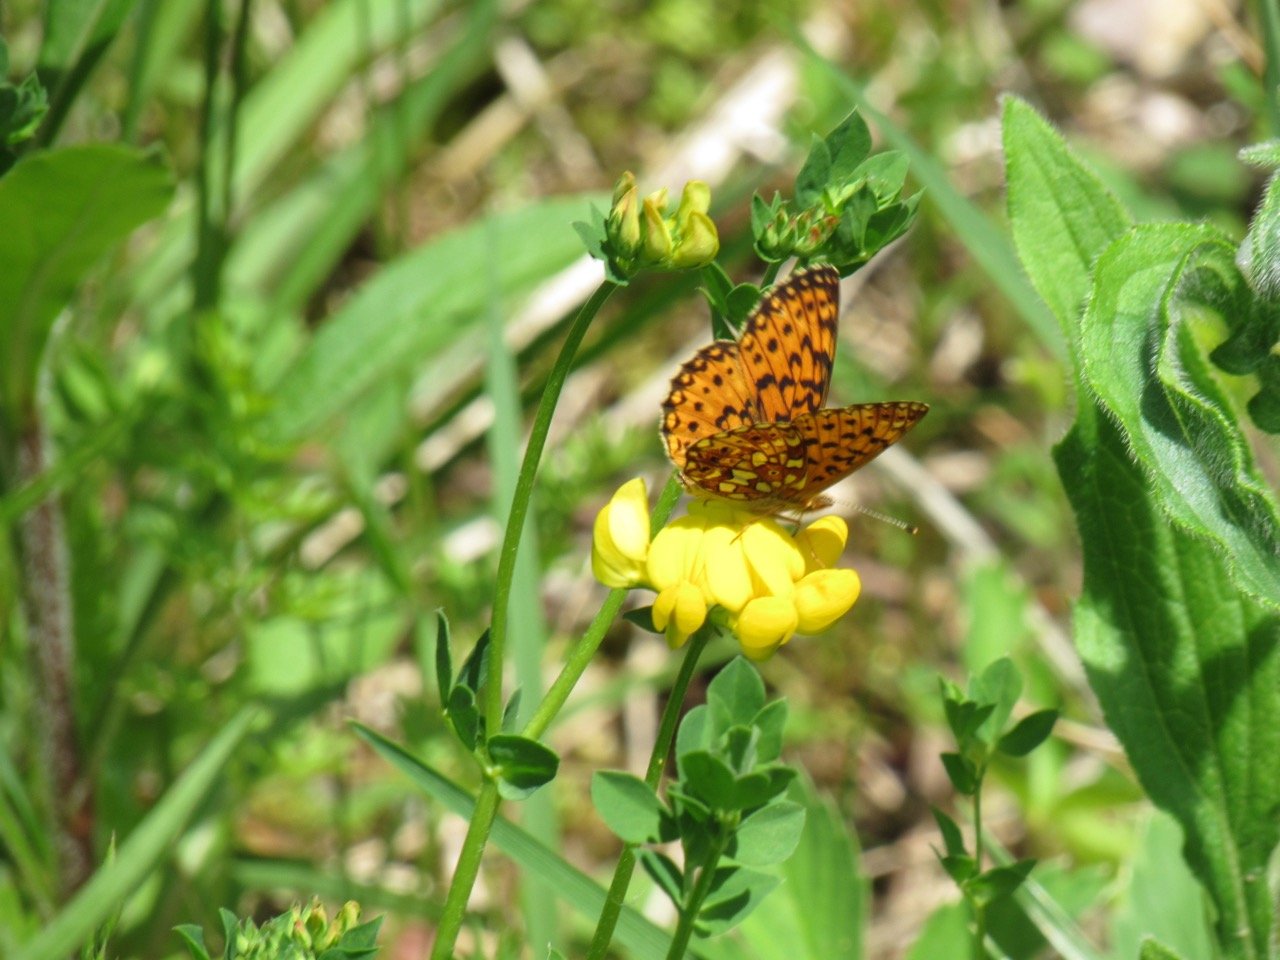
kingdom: Animalia
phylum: Arthropoda
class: Insecta
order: Lepidoptera
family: Nymphalidae
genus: Boloria
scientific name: Boloria selene
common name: Silver-bordered Fritillary
